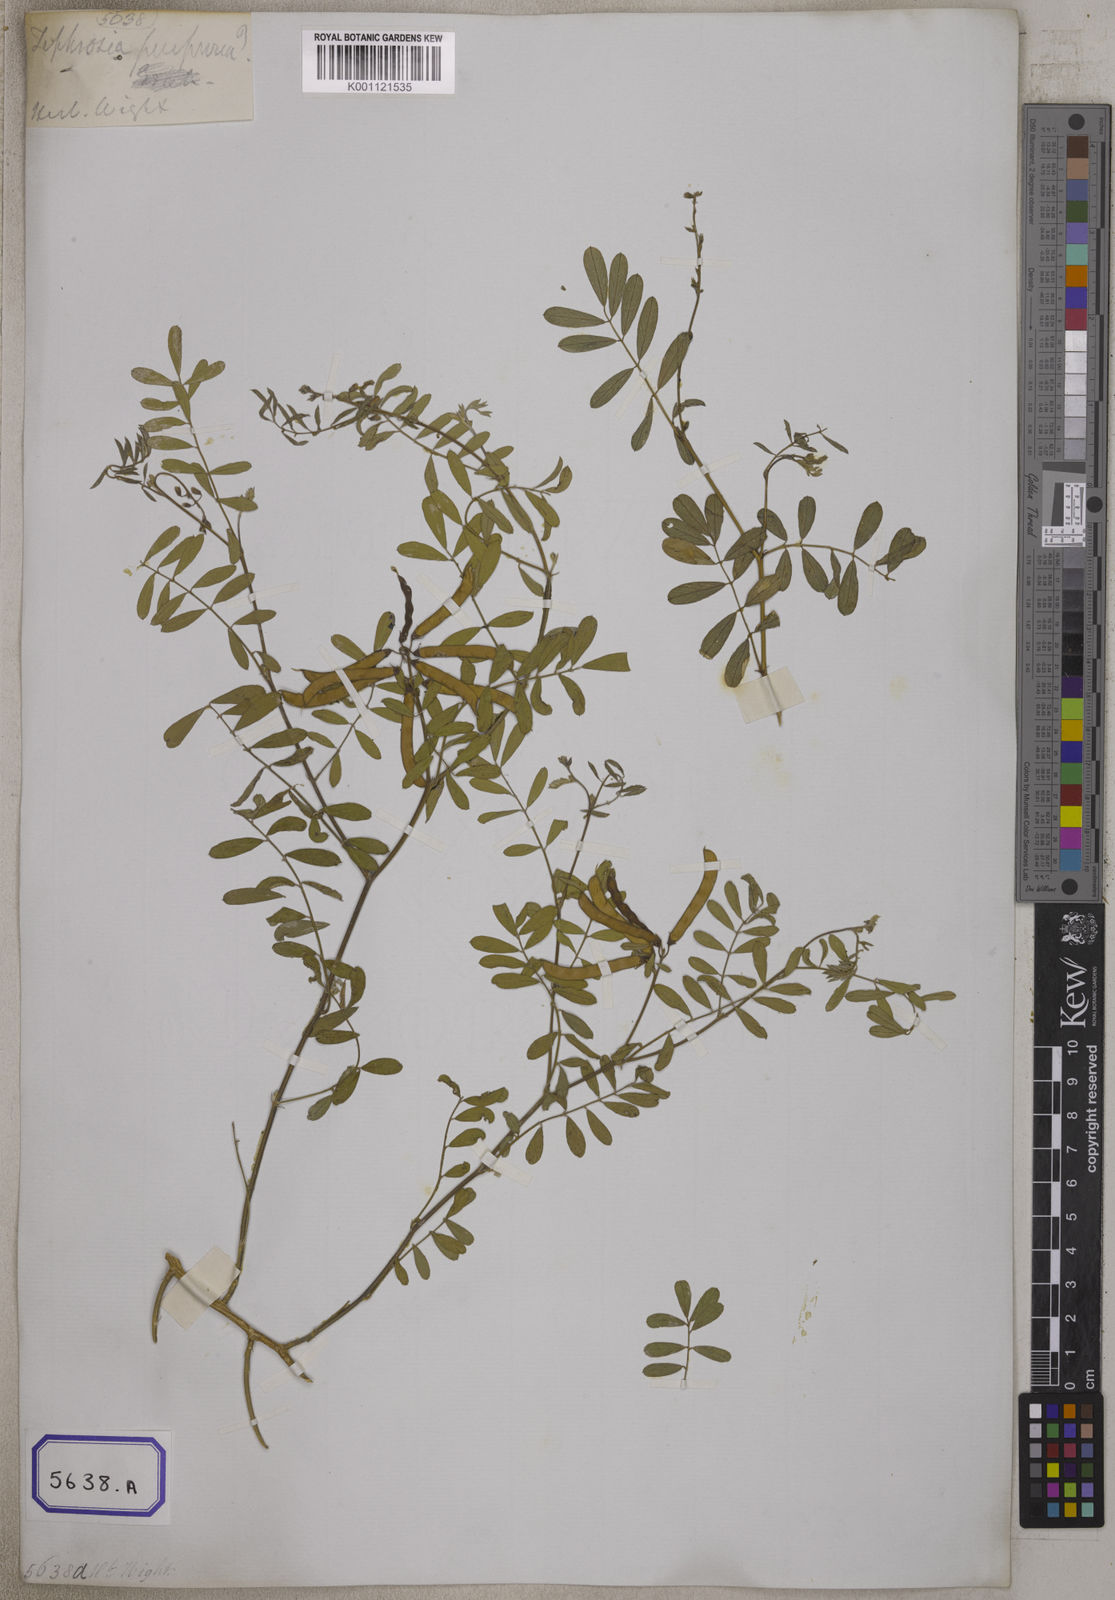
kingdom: Plantae
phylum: Tracheophyta
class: Magnoliopsida
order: Fabales
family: Fabaceae
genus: Tephrosia
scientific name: Tephrosia purpurea
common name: Fishpoison
